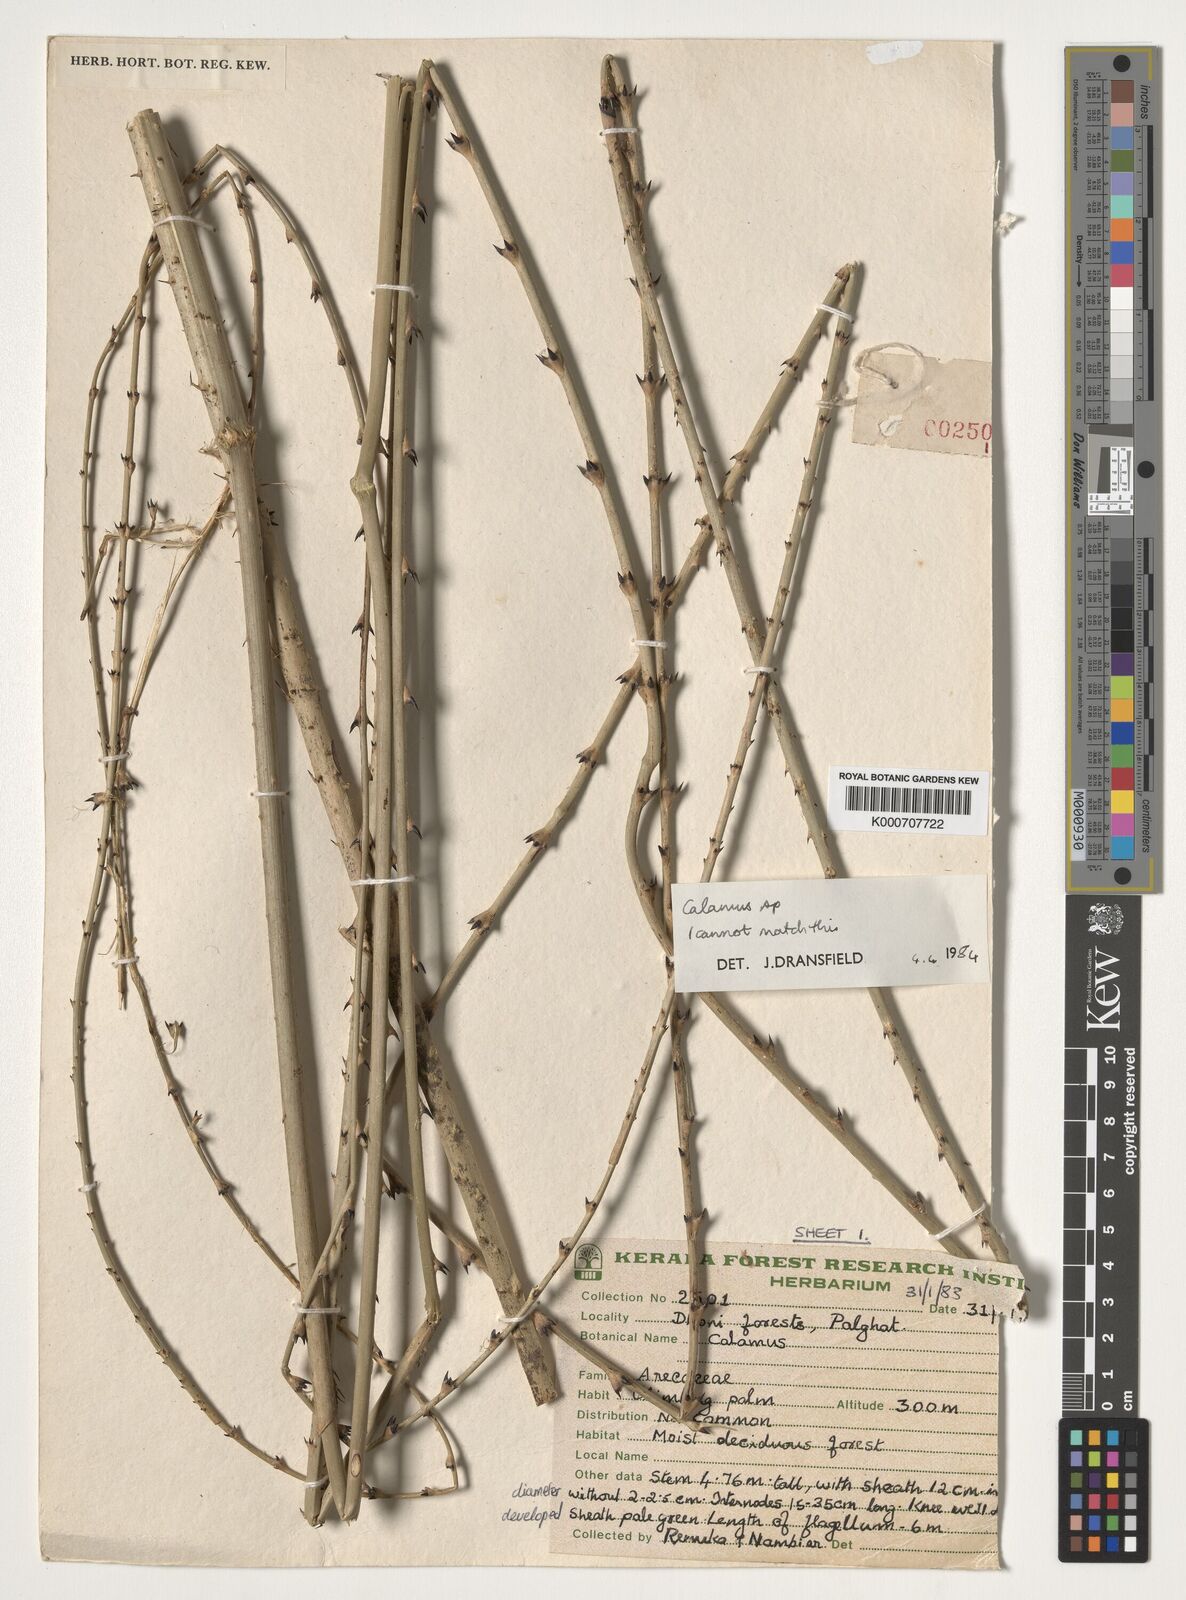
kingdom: Plantae
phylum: Tracheophyta
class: Liliopsida
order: Arecales
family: Arecaceae
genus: Calamus
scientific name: Calamus
